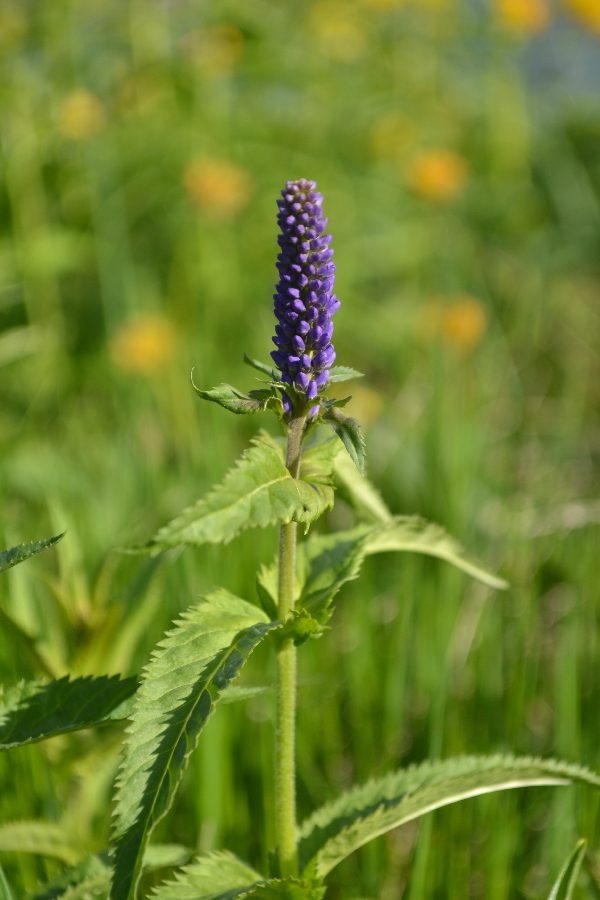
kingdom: Plantae
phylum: Tracheophyta
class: Magnoliopsida
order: Lamiales
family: Plantaginaceae
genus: Veronica
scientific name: Veronica longifolia
